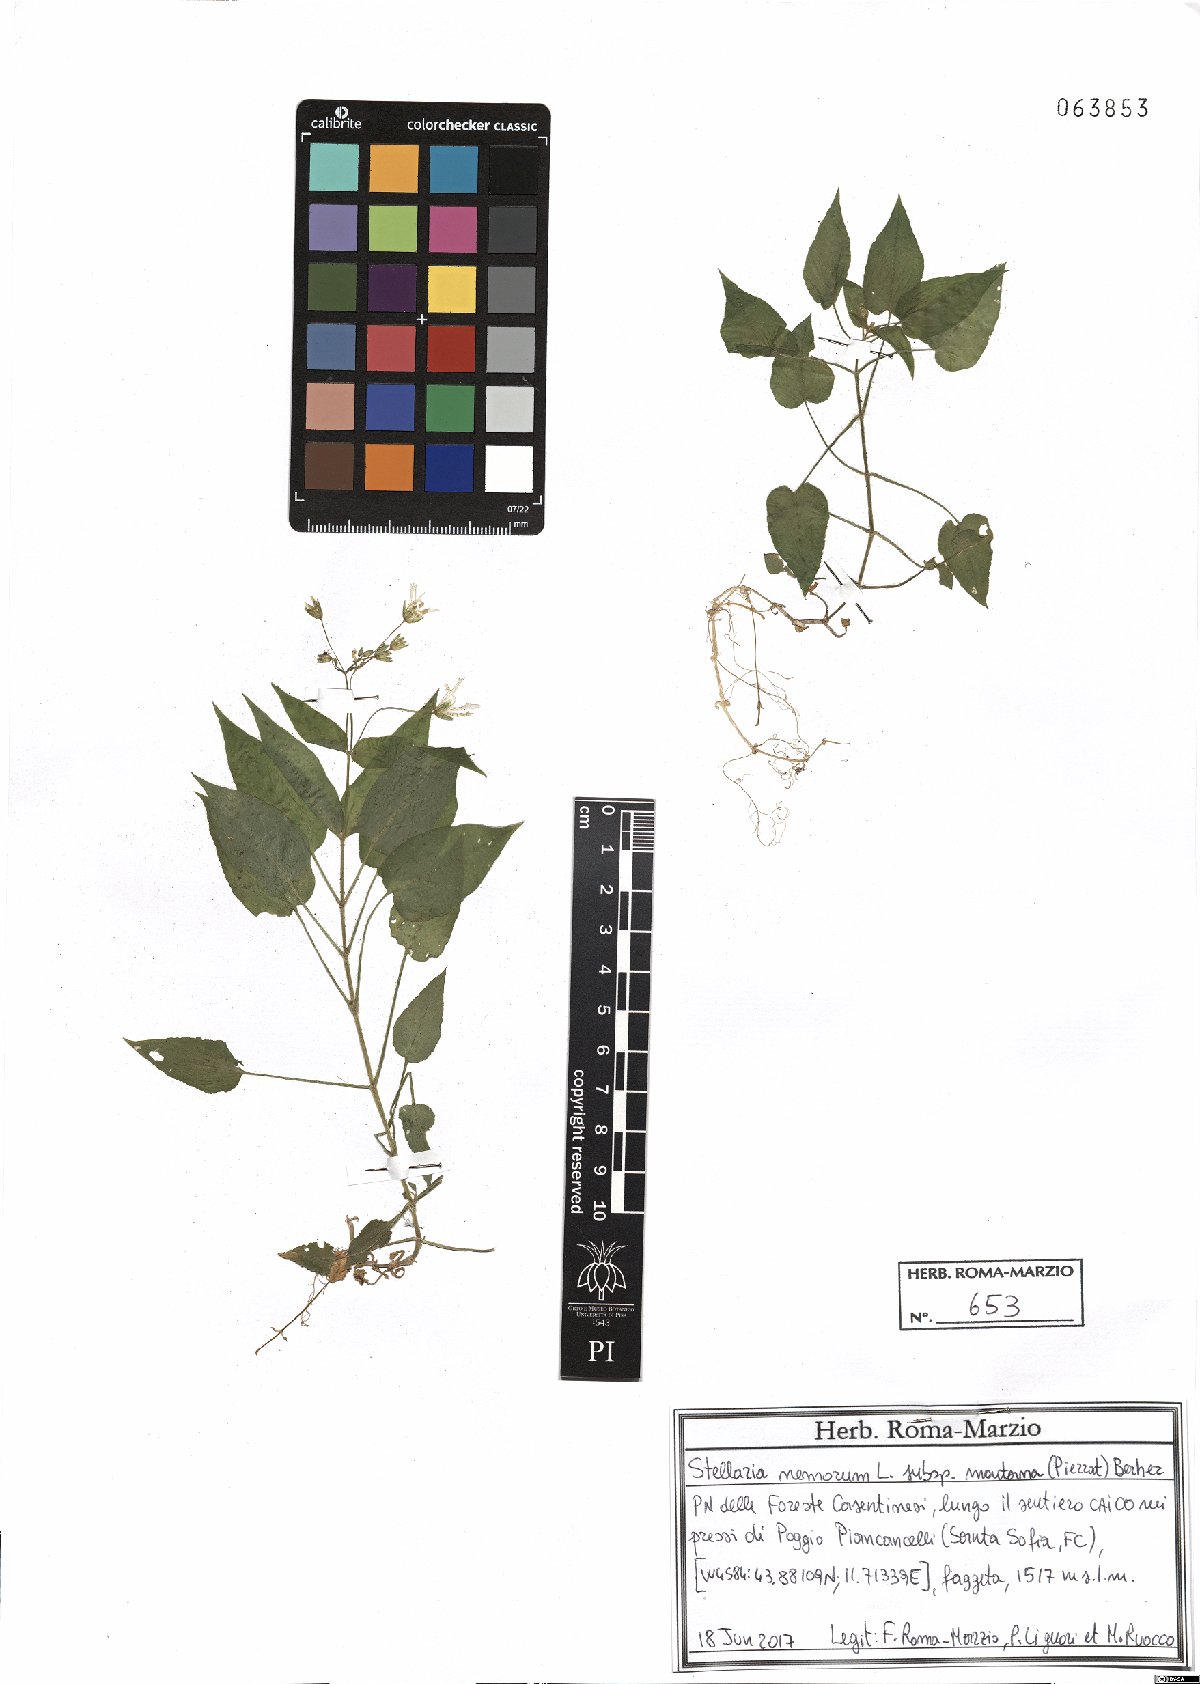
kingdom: Plantae
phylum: Tracheophyta
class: Magnoliopsida
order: Caryophyllales
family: Caryophyllaceae
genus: Stellaria
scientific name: Stellaria glochidisperma
